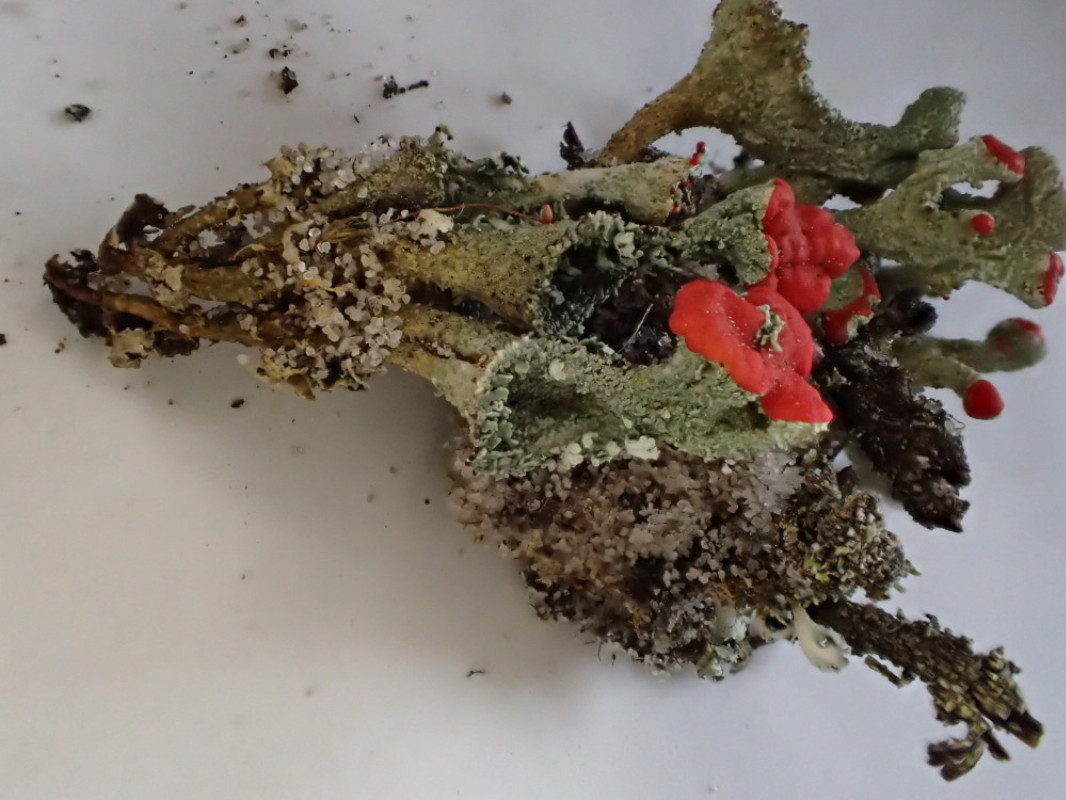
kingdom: Fungi
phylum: Ascomycota
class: Lecanoromycetes
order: Lecanorales
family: Cladoniaceae
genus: Cladonia
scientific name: Cladonia borealis
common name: nordlig bægerlav
